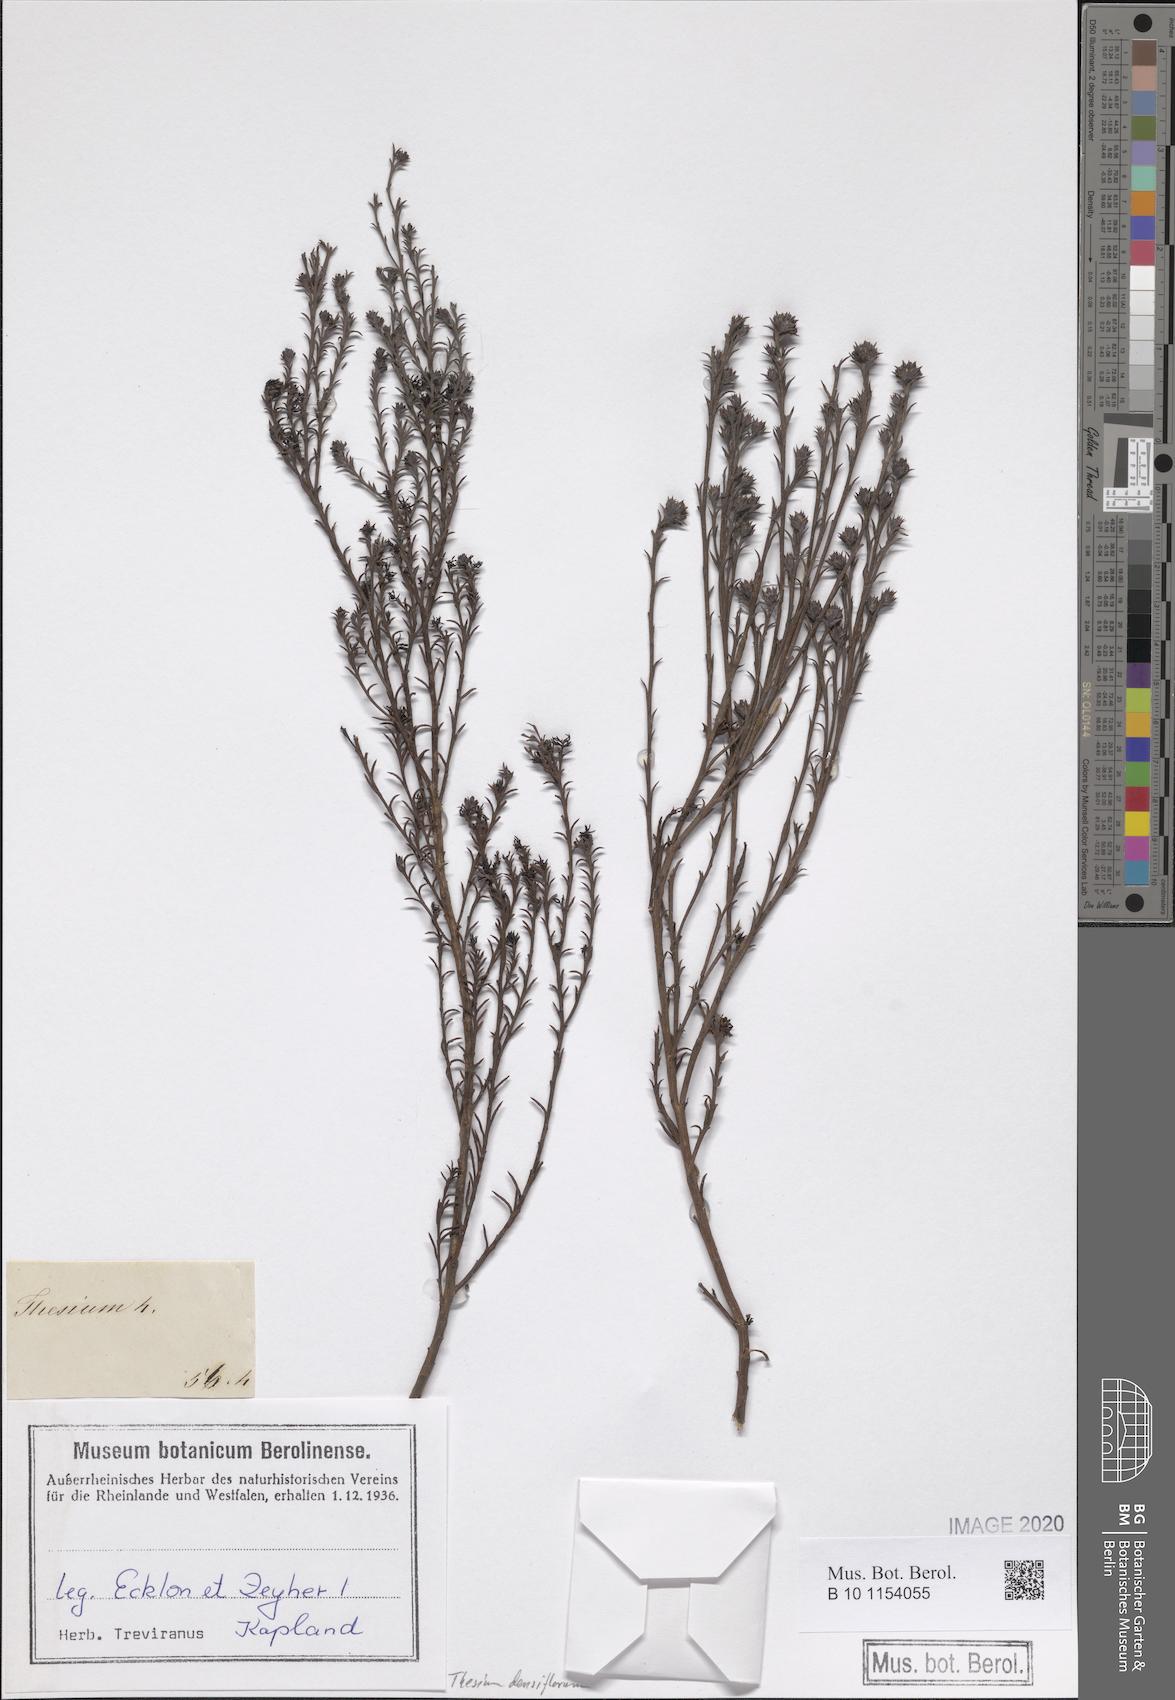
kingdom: Plantae
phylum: Tracheophyta
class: Magnoliopsida
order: Santalales
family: Thesiaceae
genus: Thesium
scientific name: Thesium densiflorum
